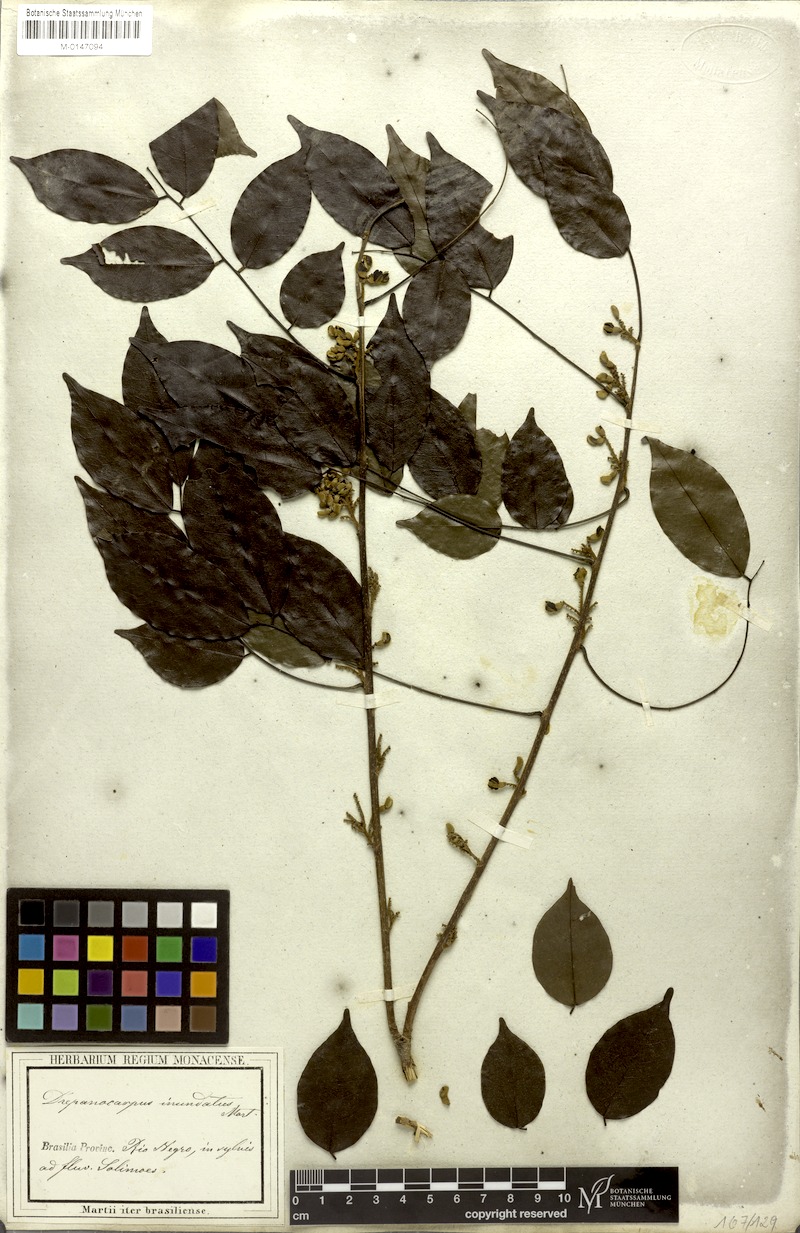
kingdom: Plantae
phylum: Tracheophyta
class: Magnoliopsida
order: Fabales
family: Fabaceae
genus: Machaerium
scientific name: Machaerium inundatum
